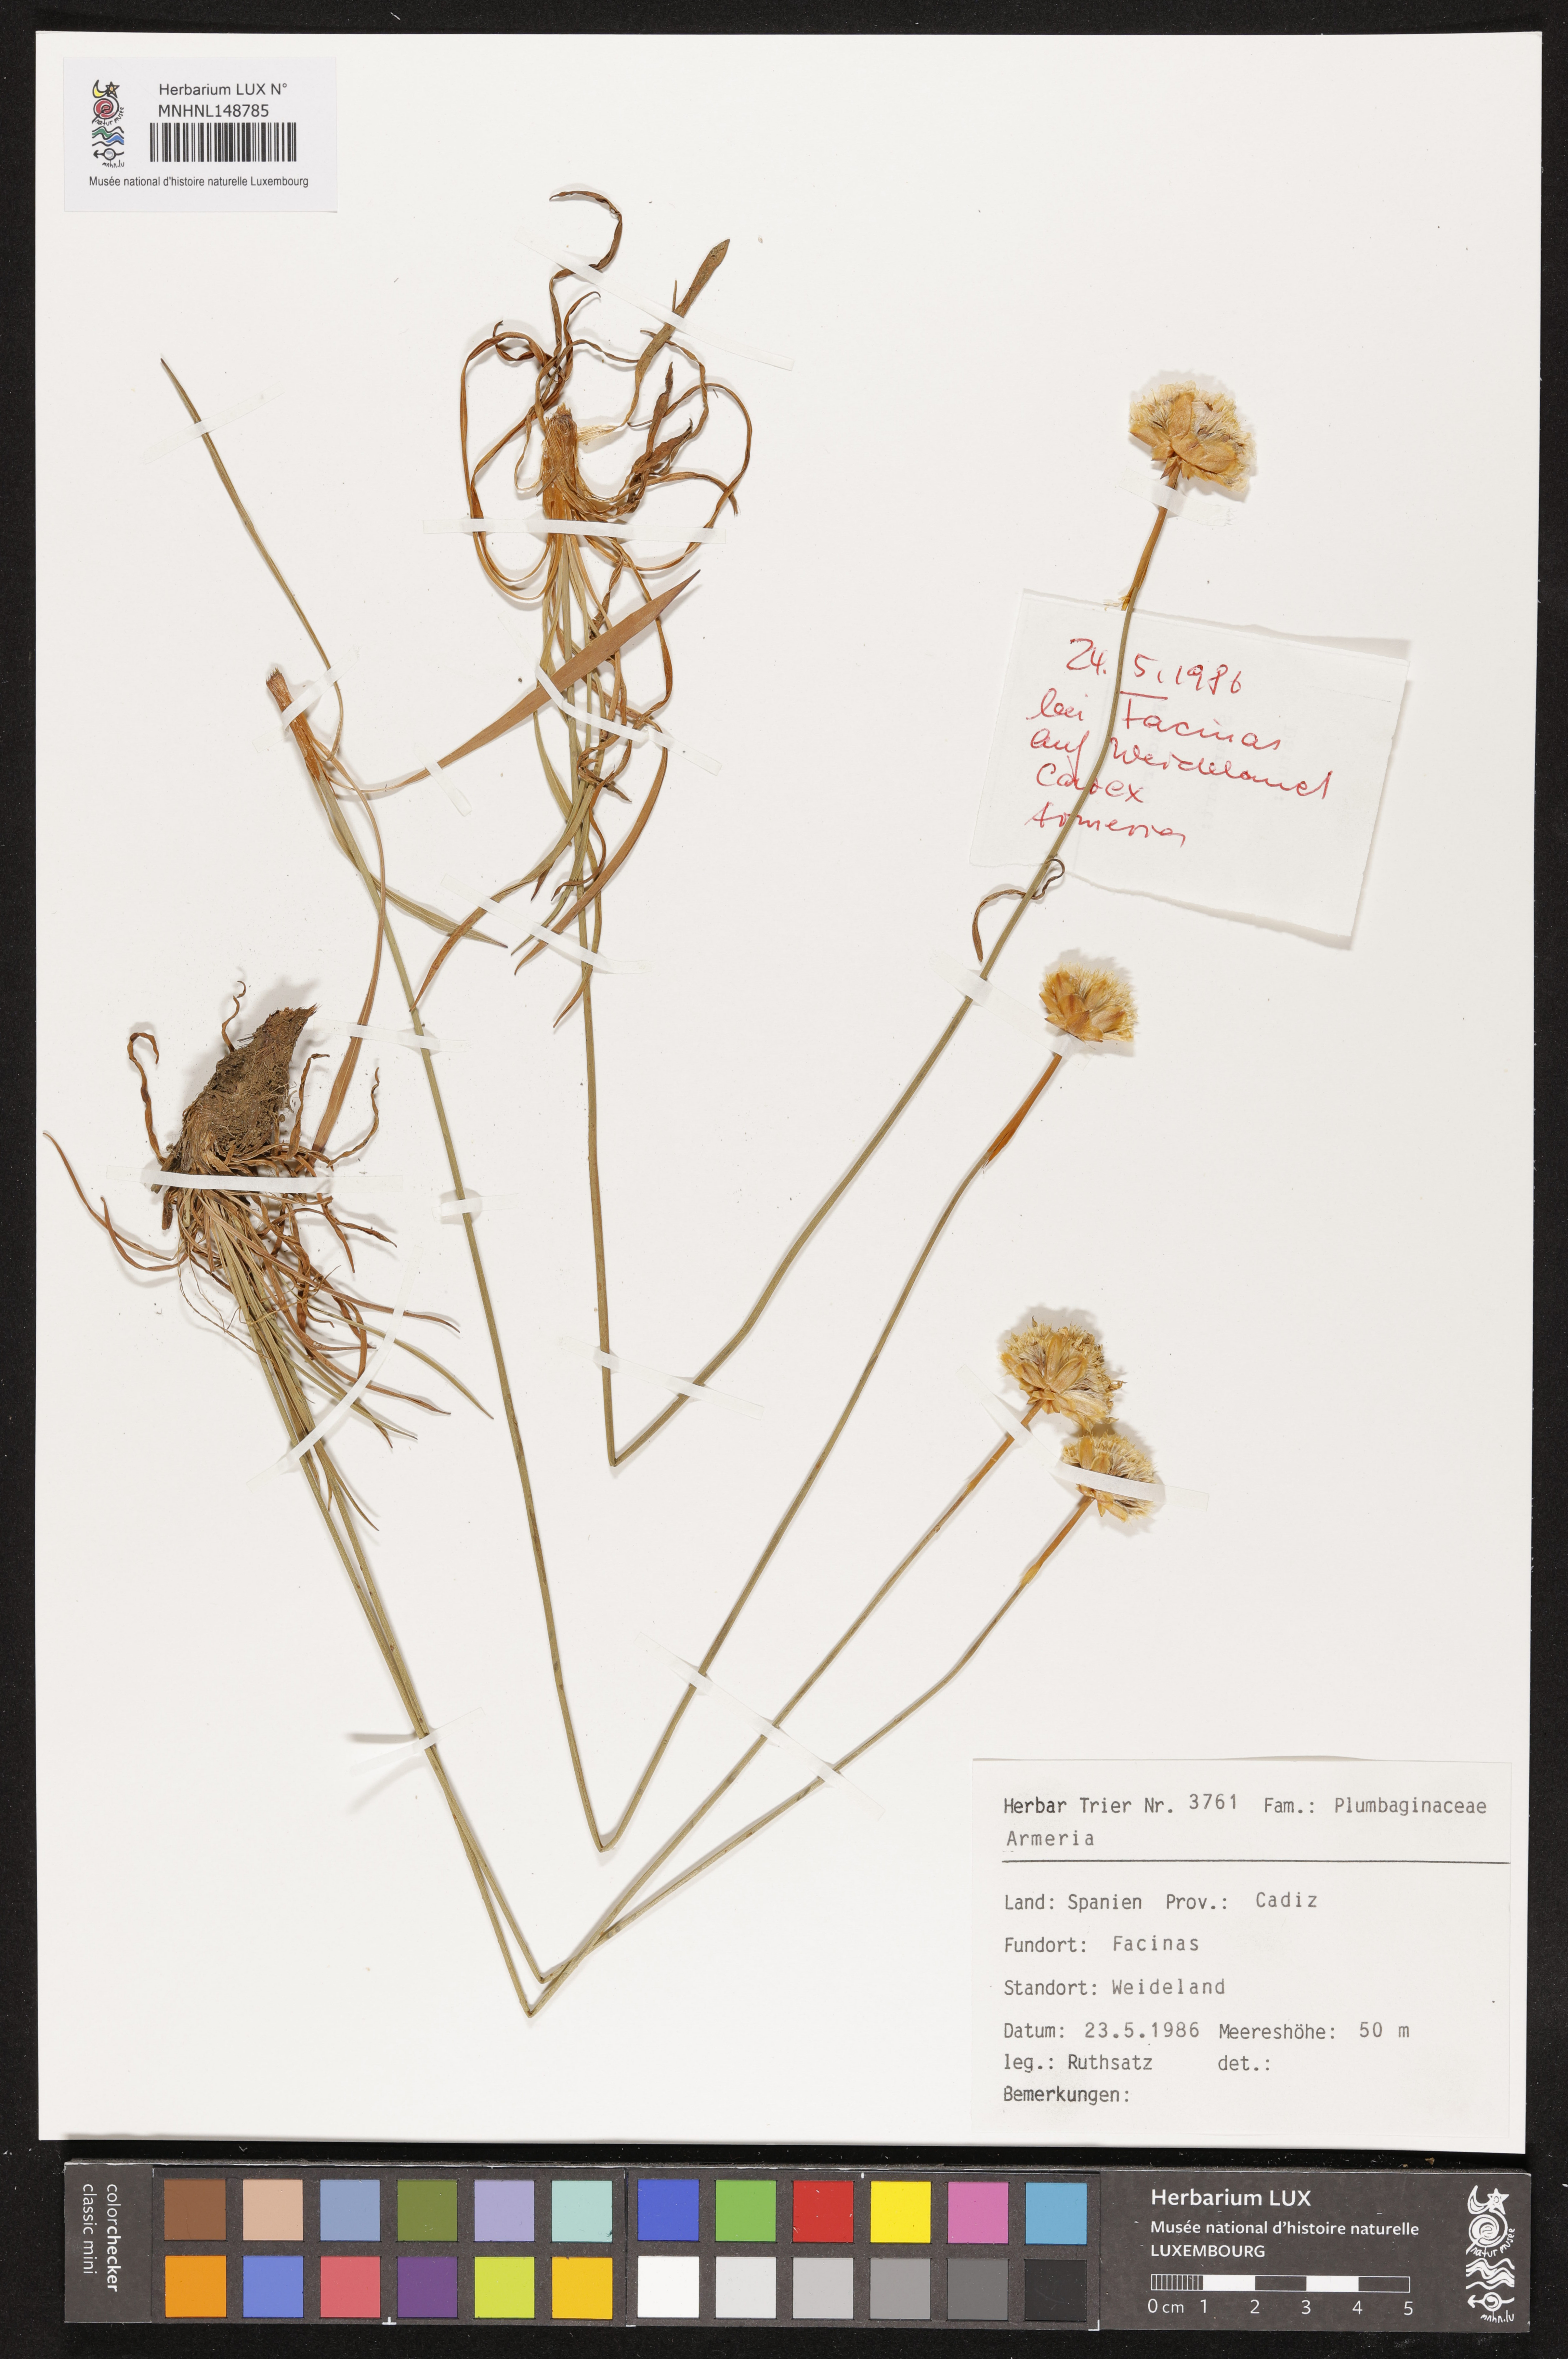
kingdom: Plantae
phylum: Tracheophyta
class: Magnoliopsida
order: Caryophyllales
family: Plumbaginaceae
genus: Armeria
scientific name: Armeria
